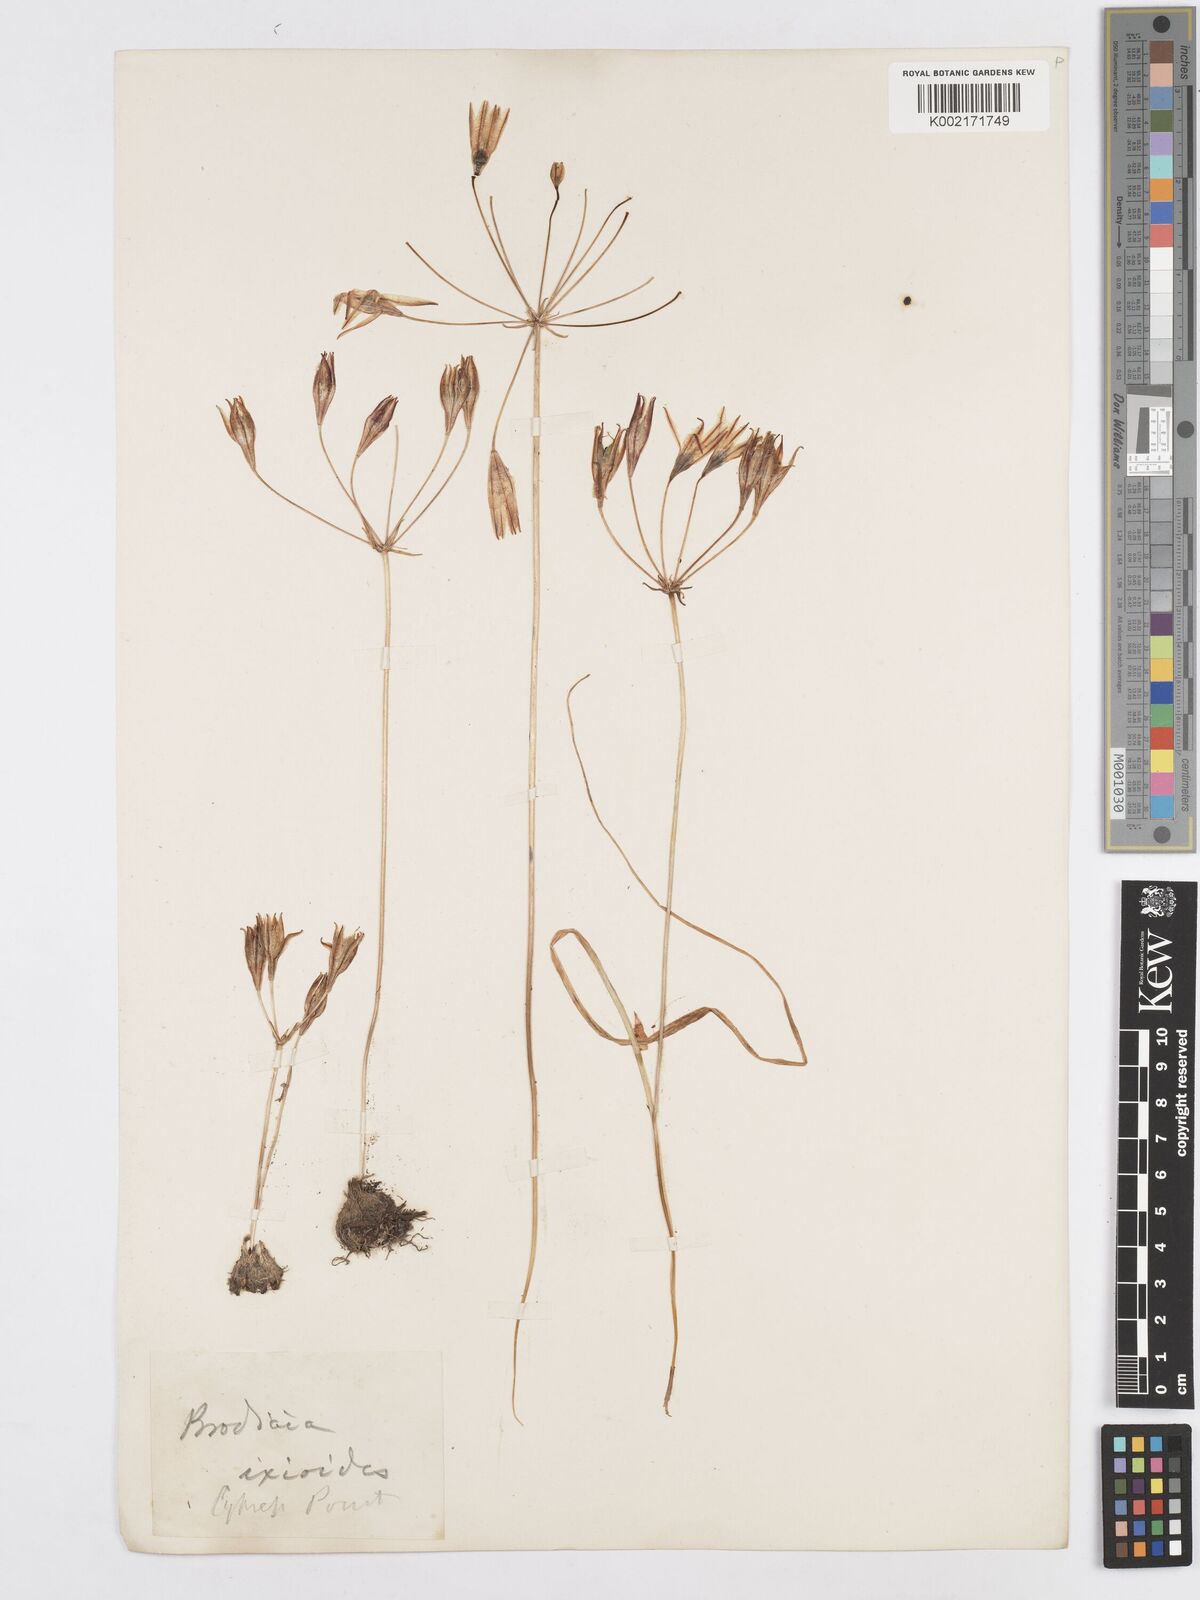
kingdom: Plantae
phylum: Tracheophyta
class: Liliopsida
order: Asparagales
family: Asparagaceae
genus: Triteleia
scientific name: Triteleia ixioides
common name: Yellow-brodiaea
